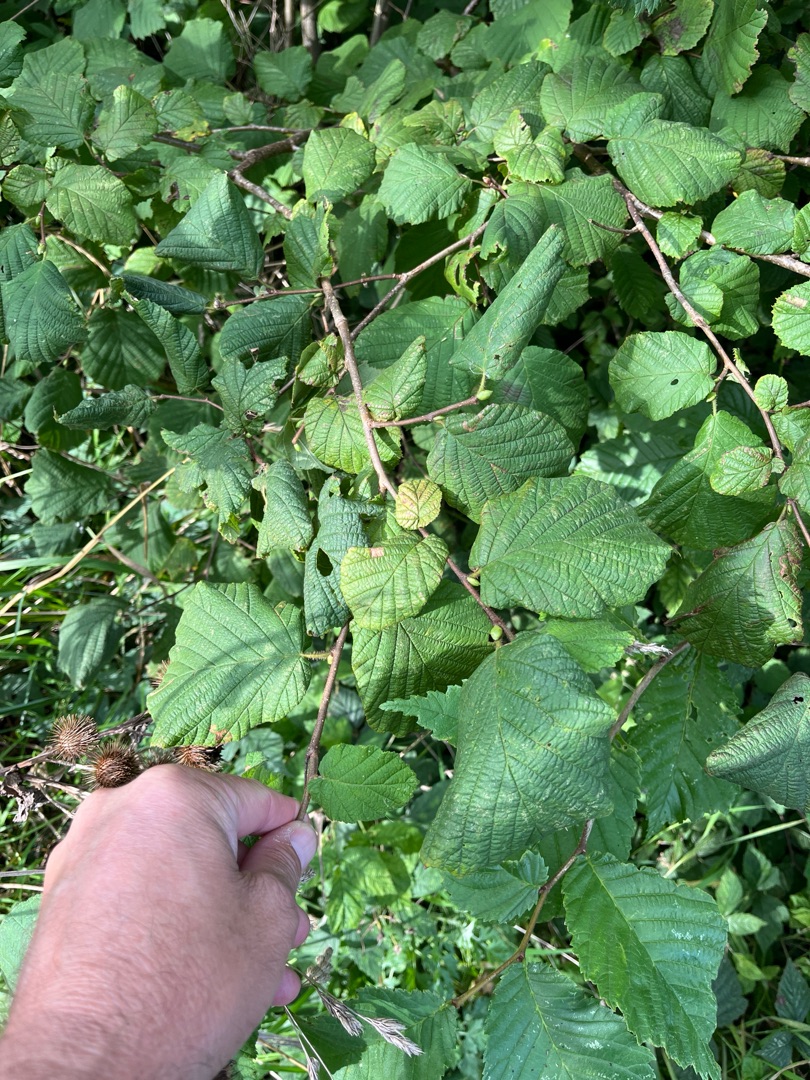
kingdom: Plantae
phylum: Tracheophyta
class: Magnoliopsida
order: Fagales
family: Betulaceae
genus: Corylus
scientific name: Corylus avellana
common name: Hassel
